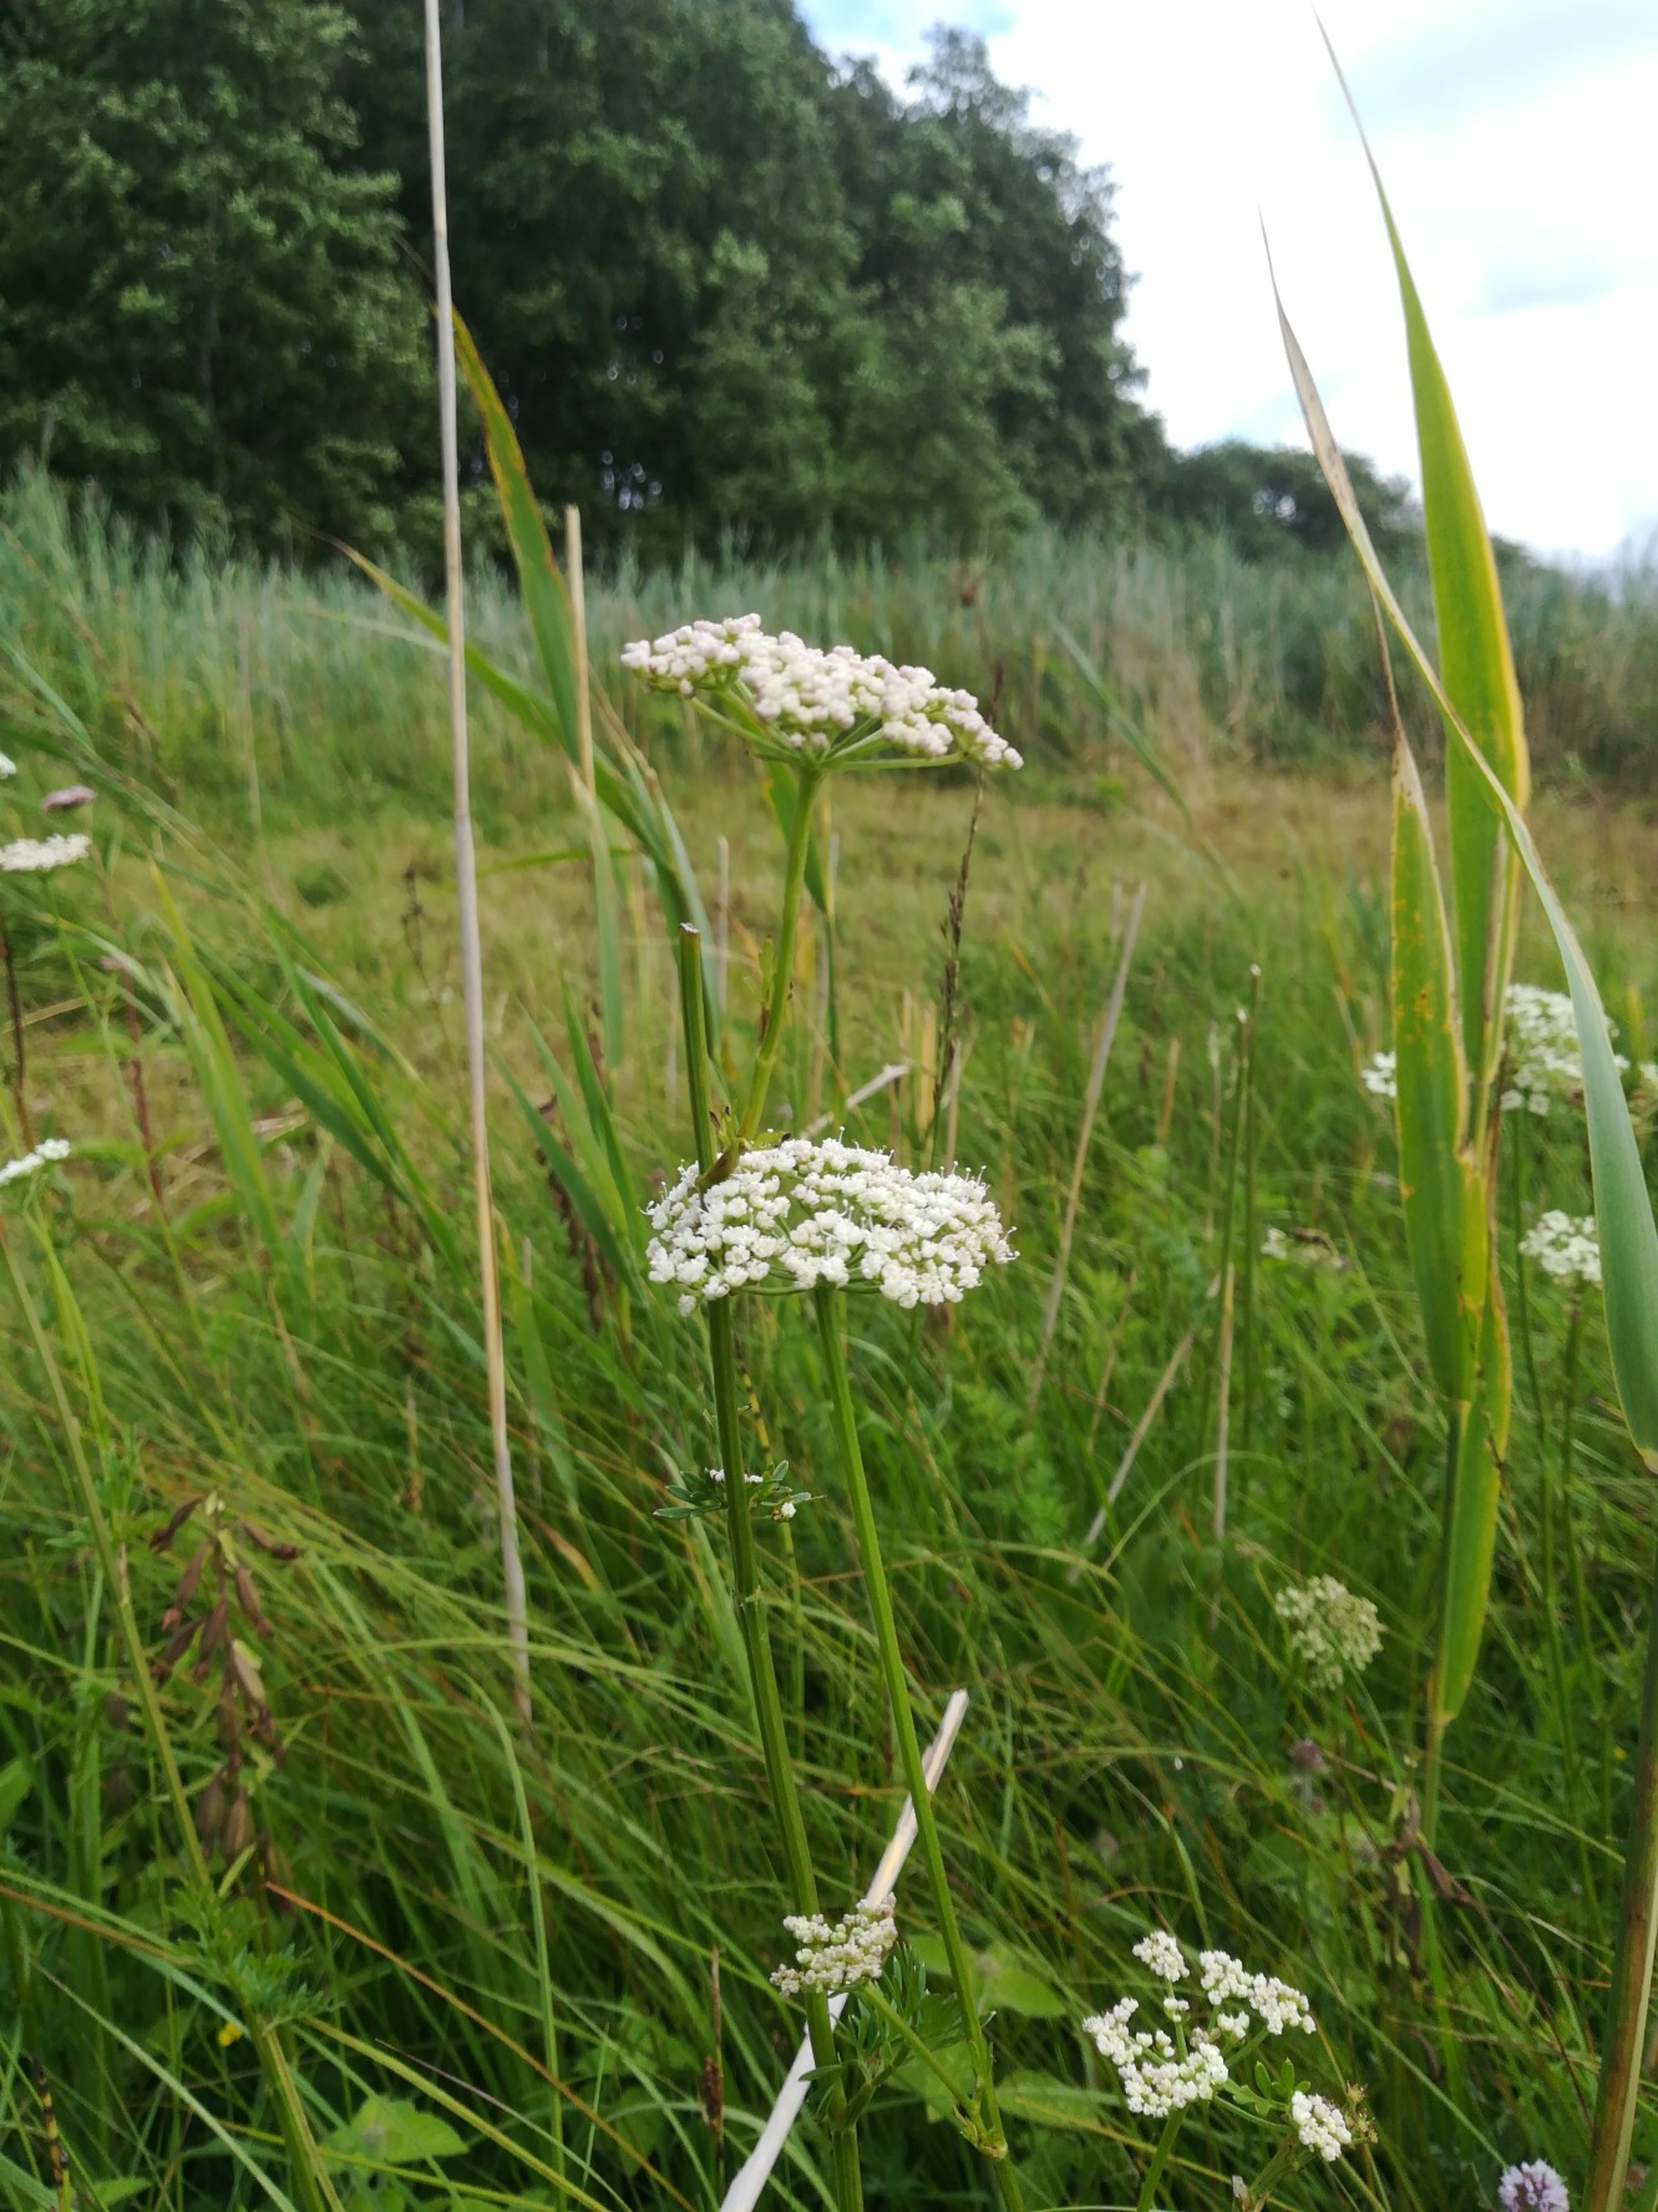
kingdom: Plantae
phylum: Tracheophyta
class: Magnoliopsida
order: Apiales
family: Apiaceae
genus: Selinum
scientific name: Selinum carvifolia
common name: Seline
